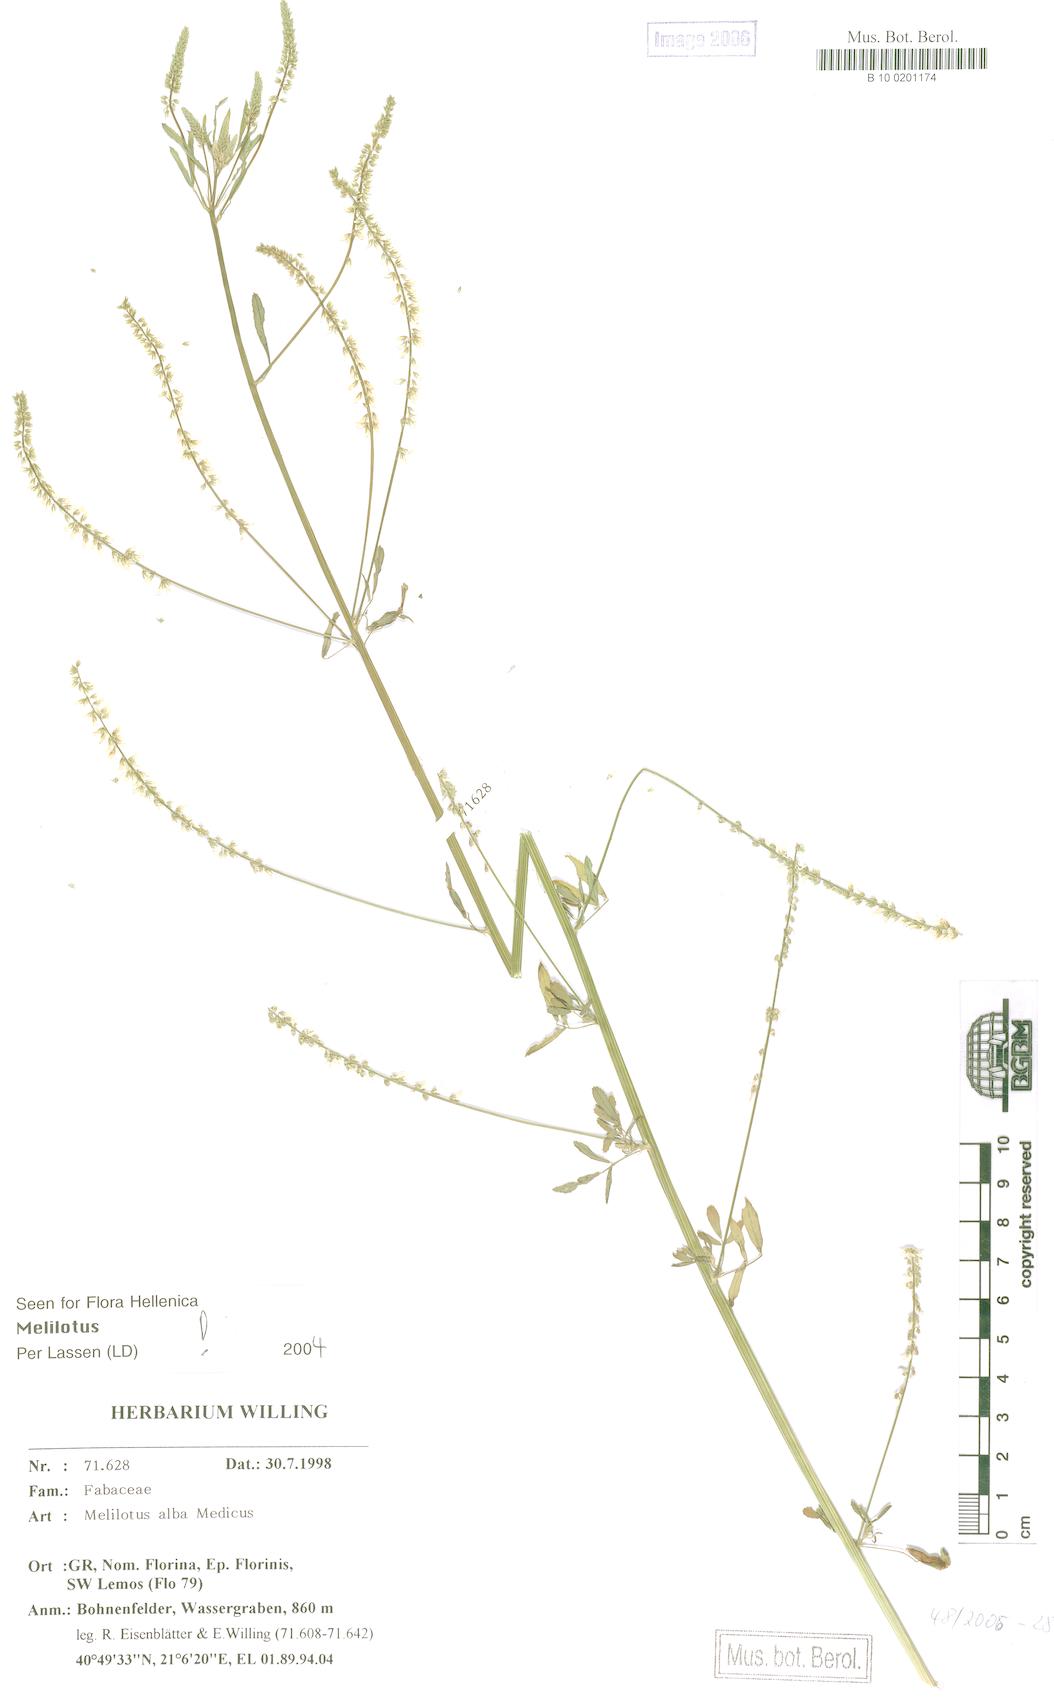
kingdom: Plantae
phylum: Tracheophyta
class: Magnoliopsida
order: Fabales
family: Fabaceae
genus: Melilotus
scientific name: Melilotus albus
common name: White melilot
